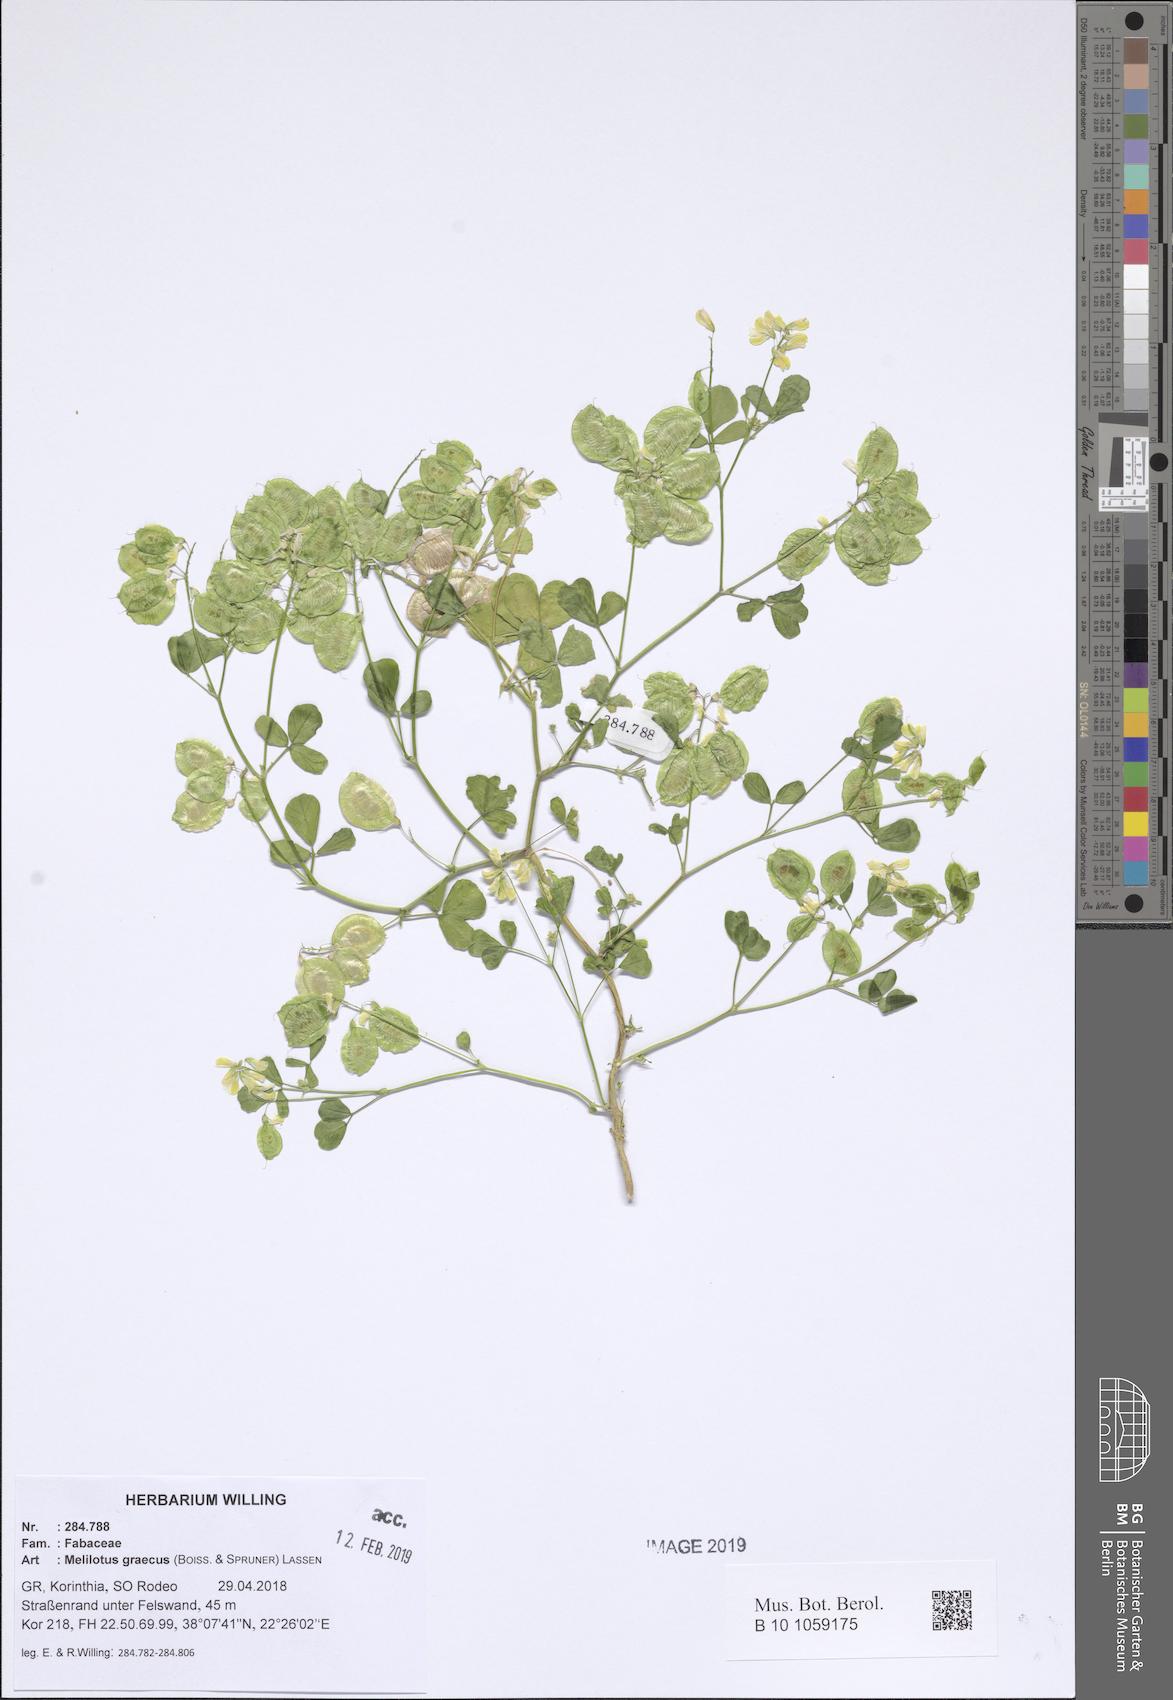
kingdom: Plantae
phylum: Tracheophyta
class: Magnoliopsida
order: Fabales
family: Fabaceae
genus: Trigonella
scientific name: Trigonella graeca
